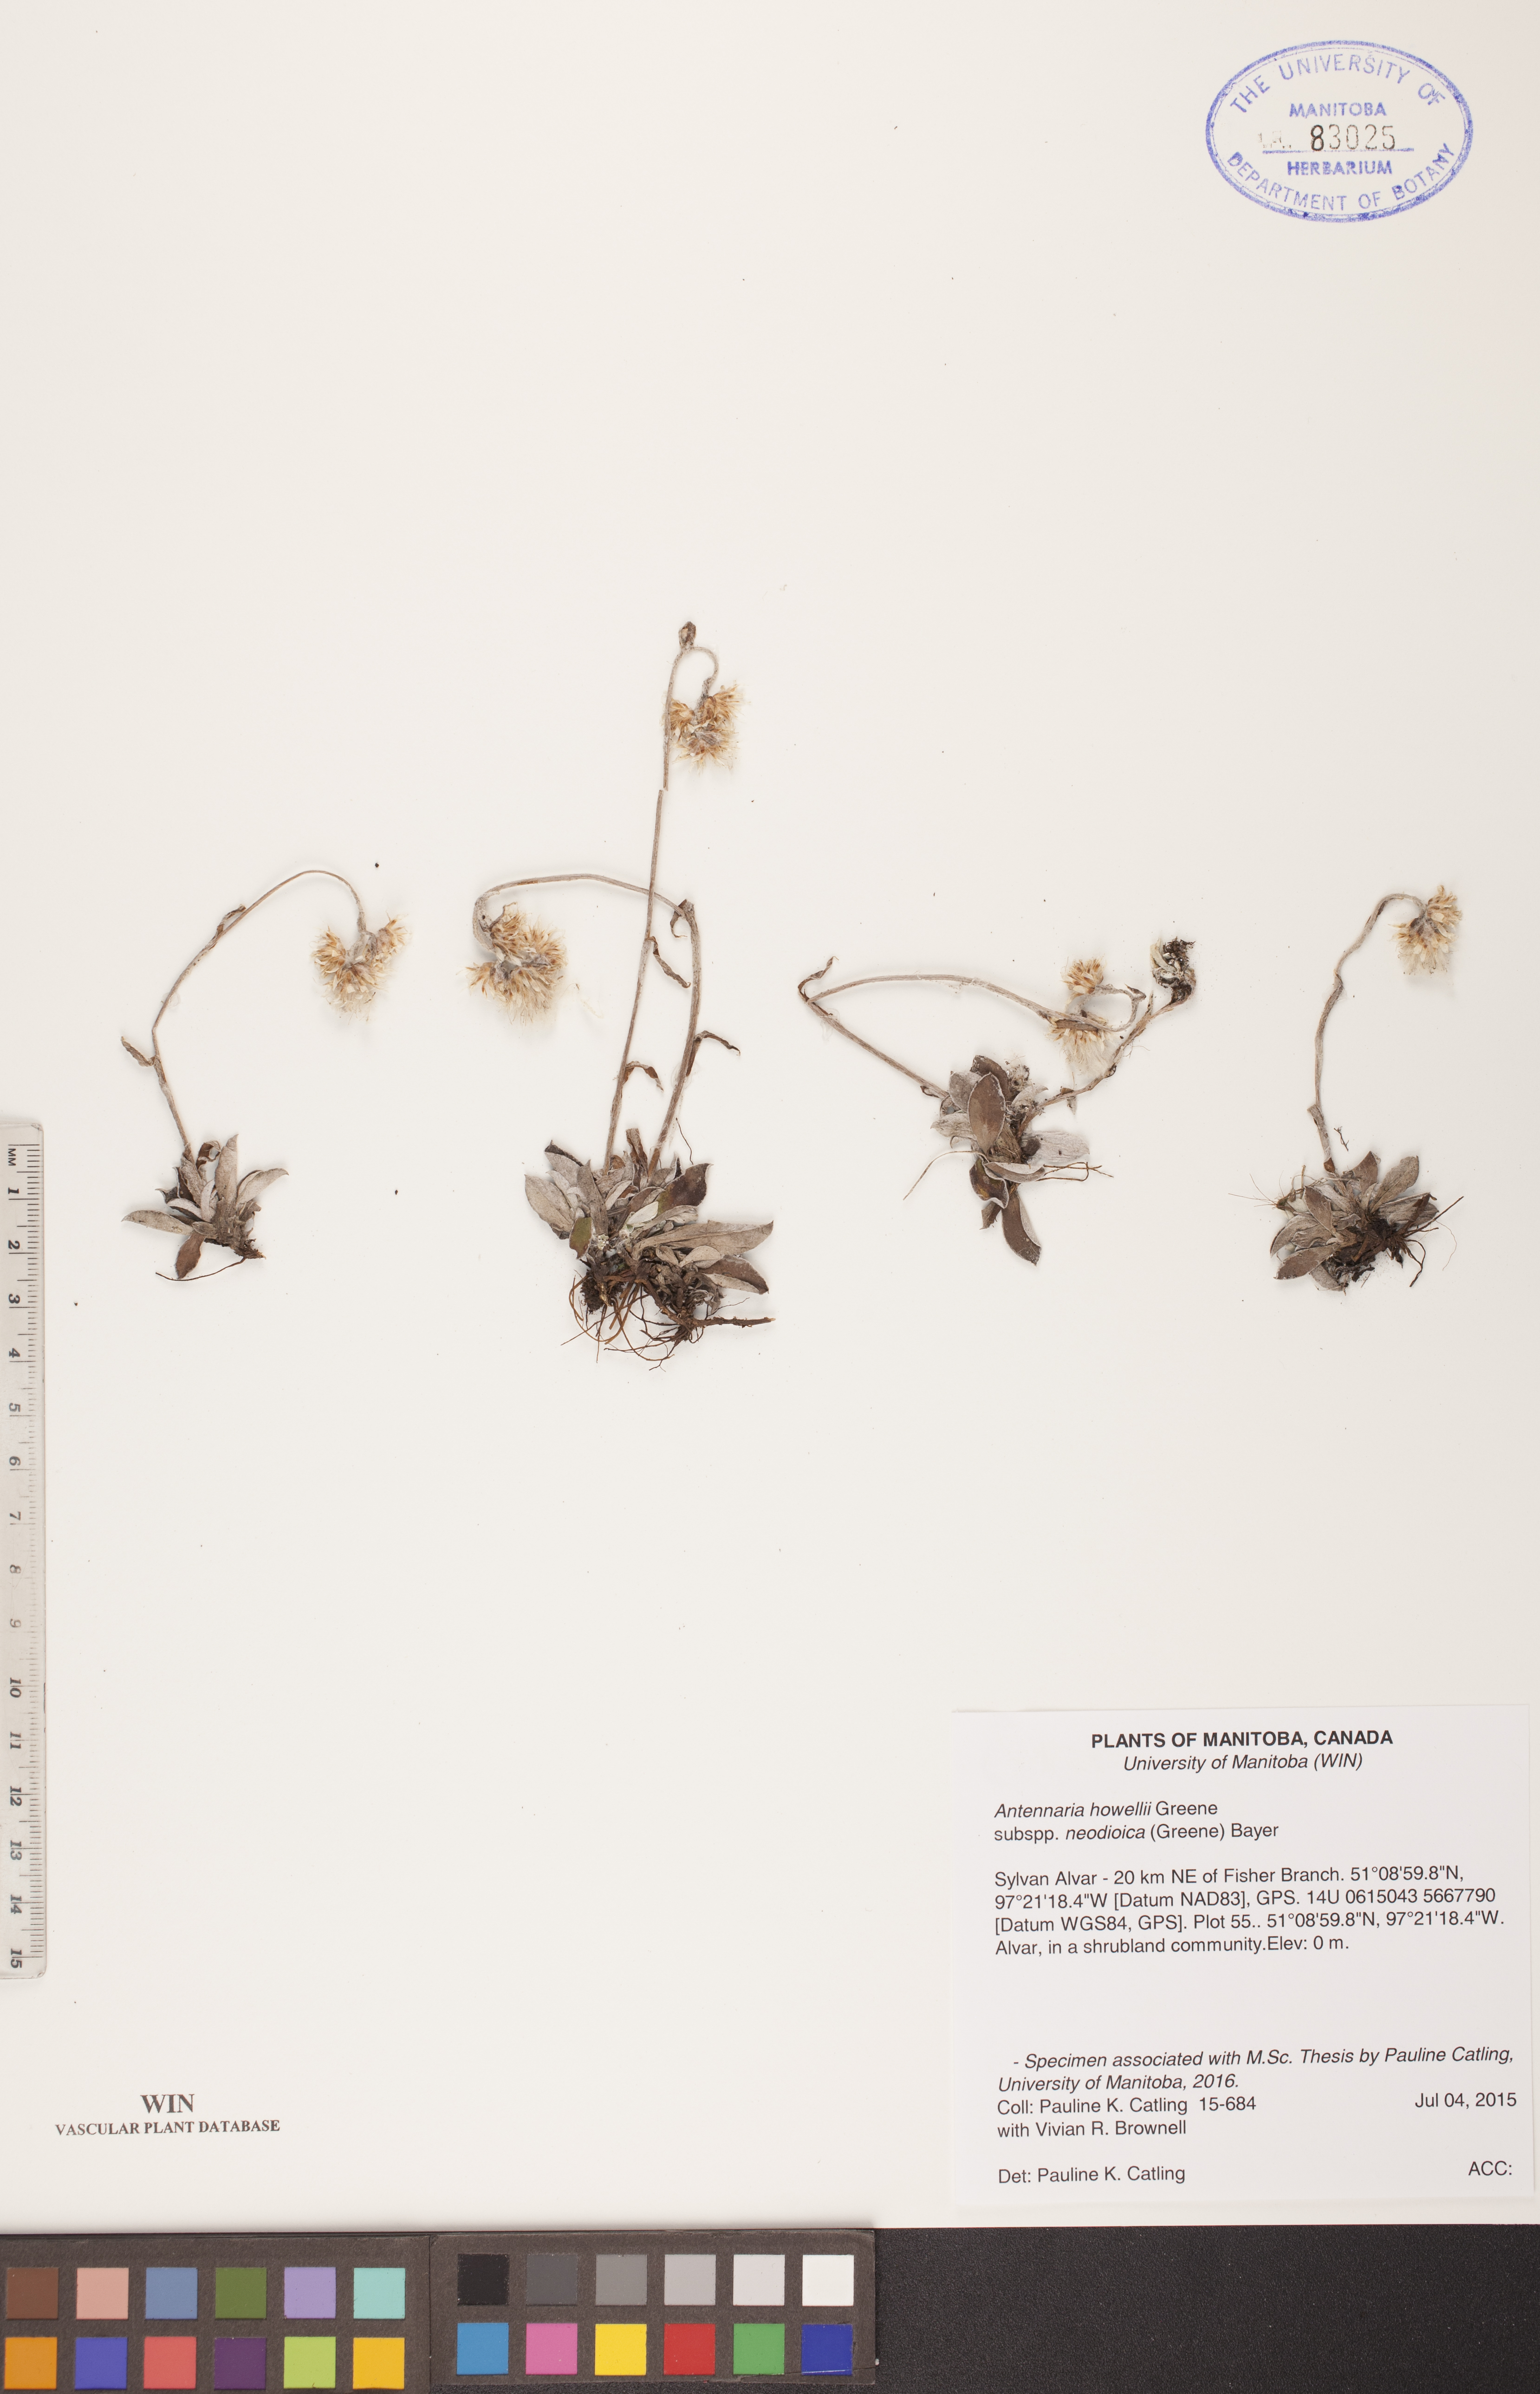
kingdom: Plantae
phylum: Tracheophyta
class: Magnoliopsida
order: Asterales
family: Asteraceae
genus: Antennaria
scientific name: Antennaria howellii
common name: Howell's pussytoes
